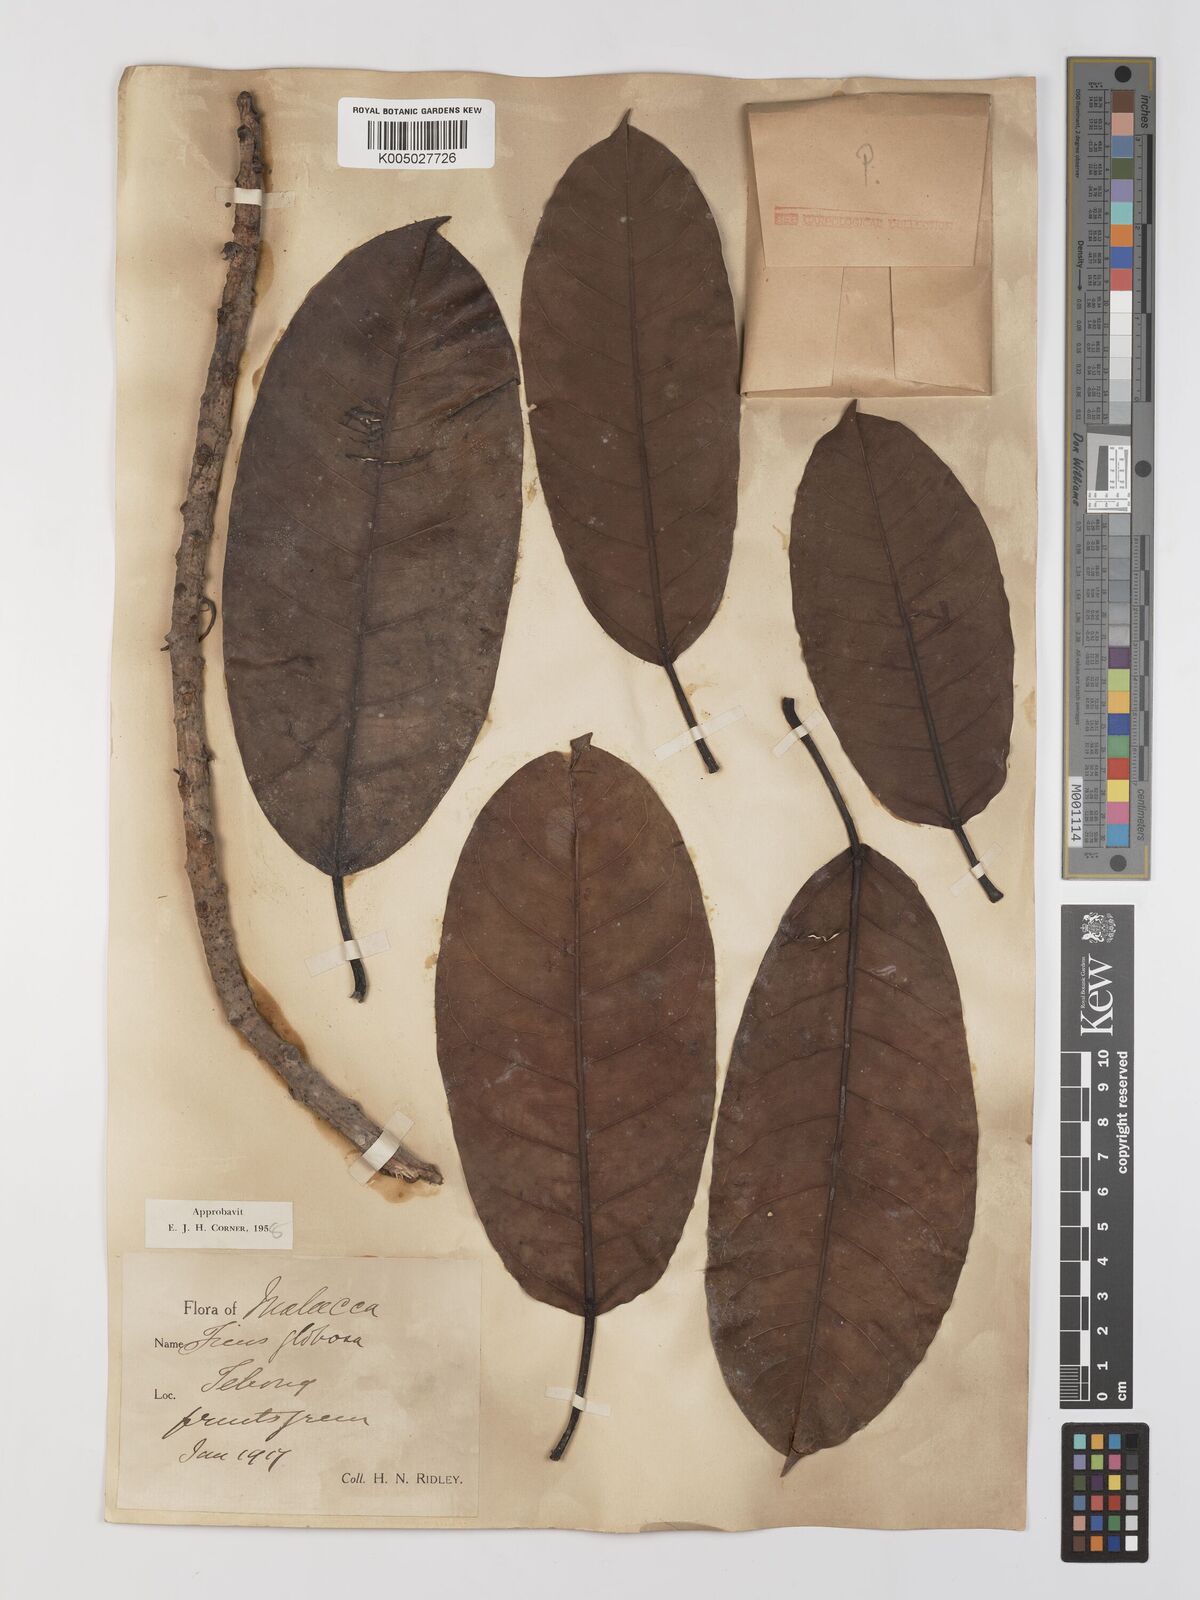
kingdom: Plantae
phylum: Tracheophyta
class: Magnoliopsida
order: Rosales
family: Moraceae
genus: Ficus
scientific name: Ficus
